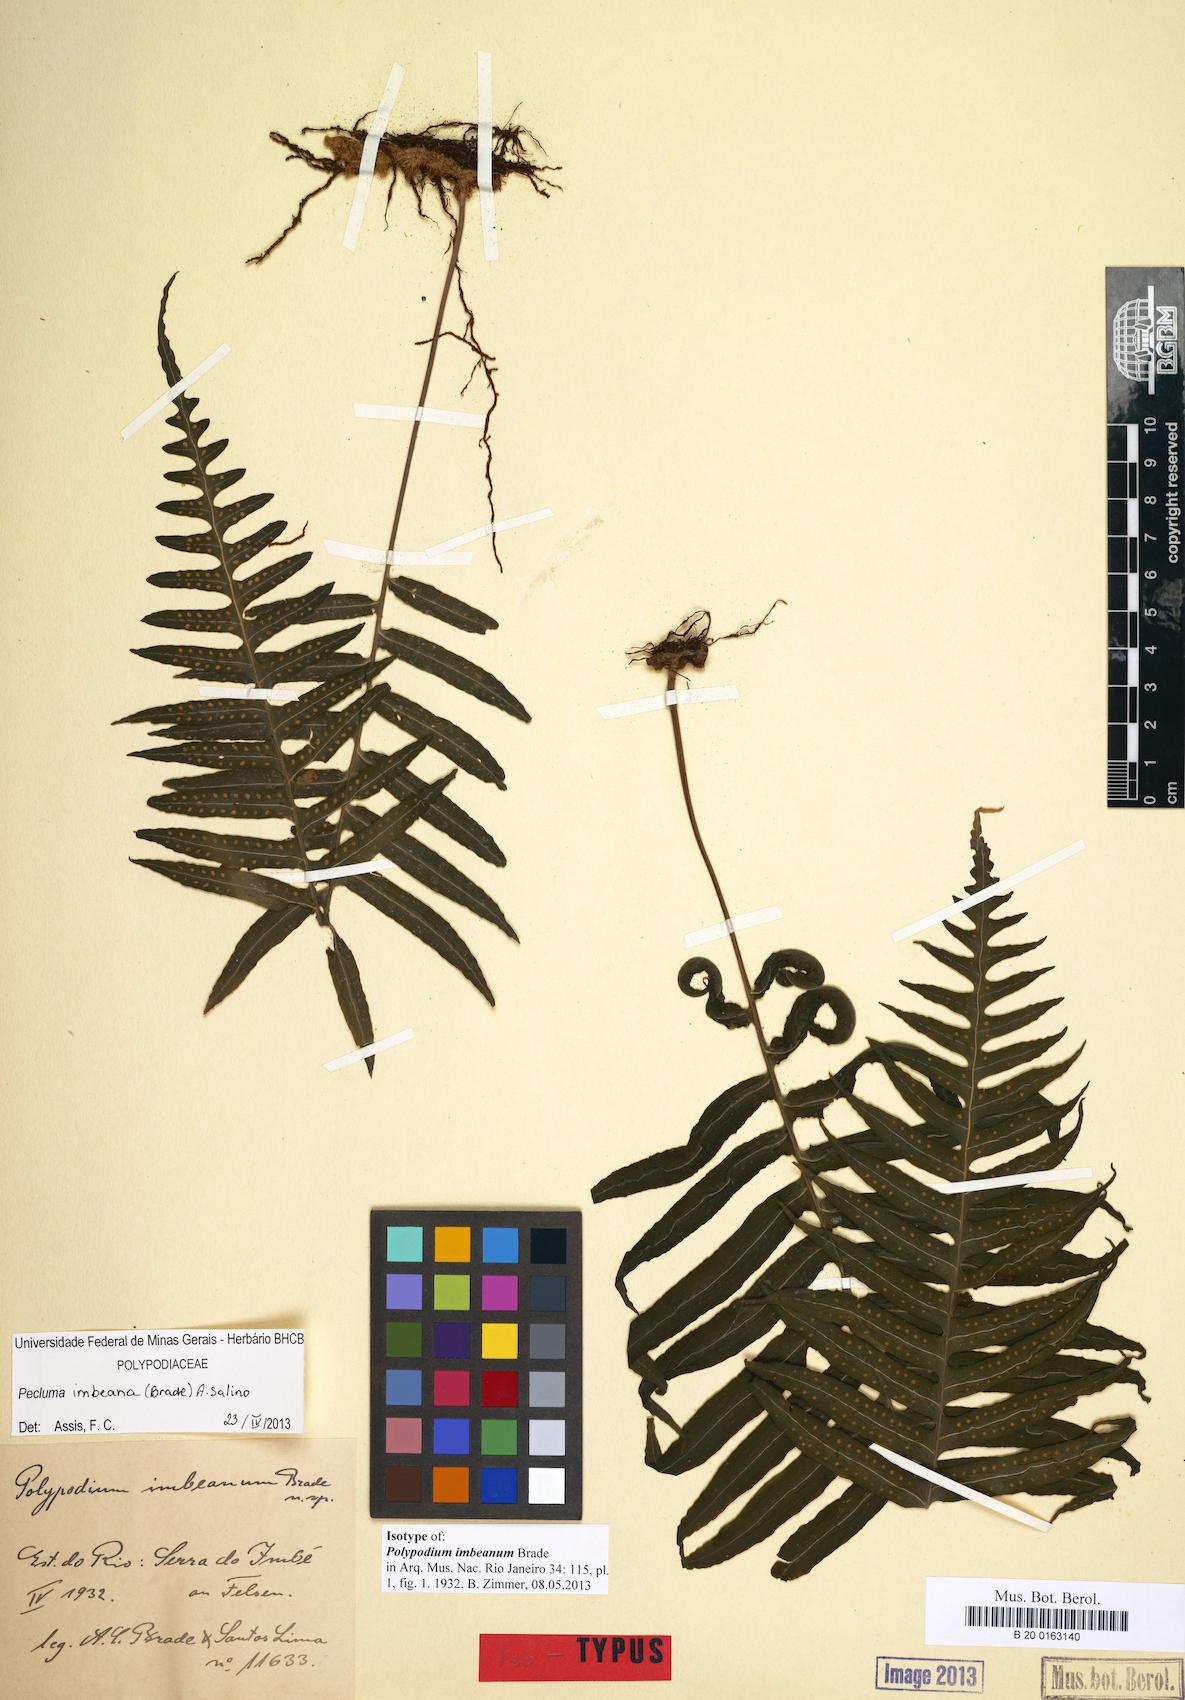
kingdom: Plantae
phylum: Tracheophyta
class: Polypodiopsida
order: Polypodiales
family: Polypodiaceae
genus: Pecluma
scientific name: Pecluma imbeana
